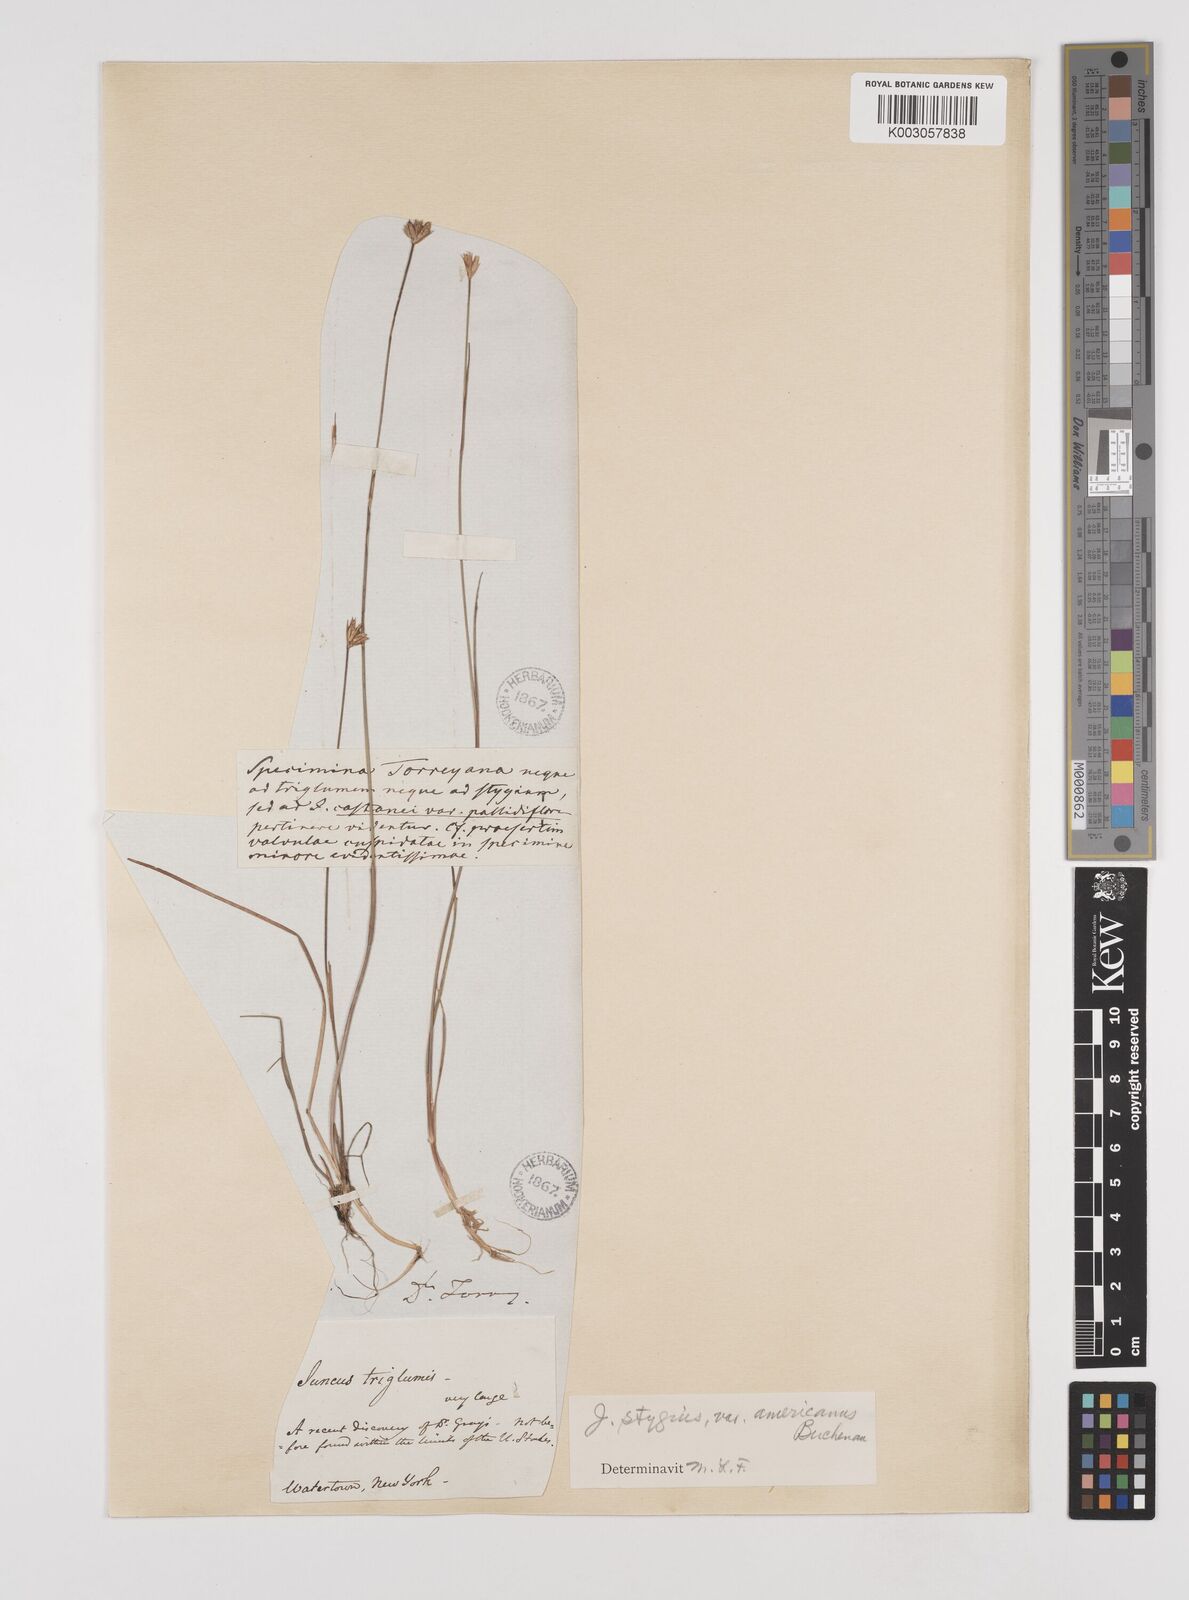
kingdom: Plantae
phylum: Tracheophyta
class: Liliopsida
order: Poales
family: Juncaceae
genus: Juncus
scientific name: Juncus stygius
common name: Bog rush
